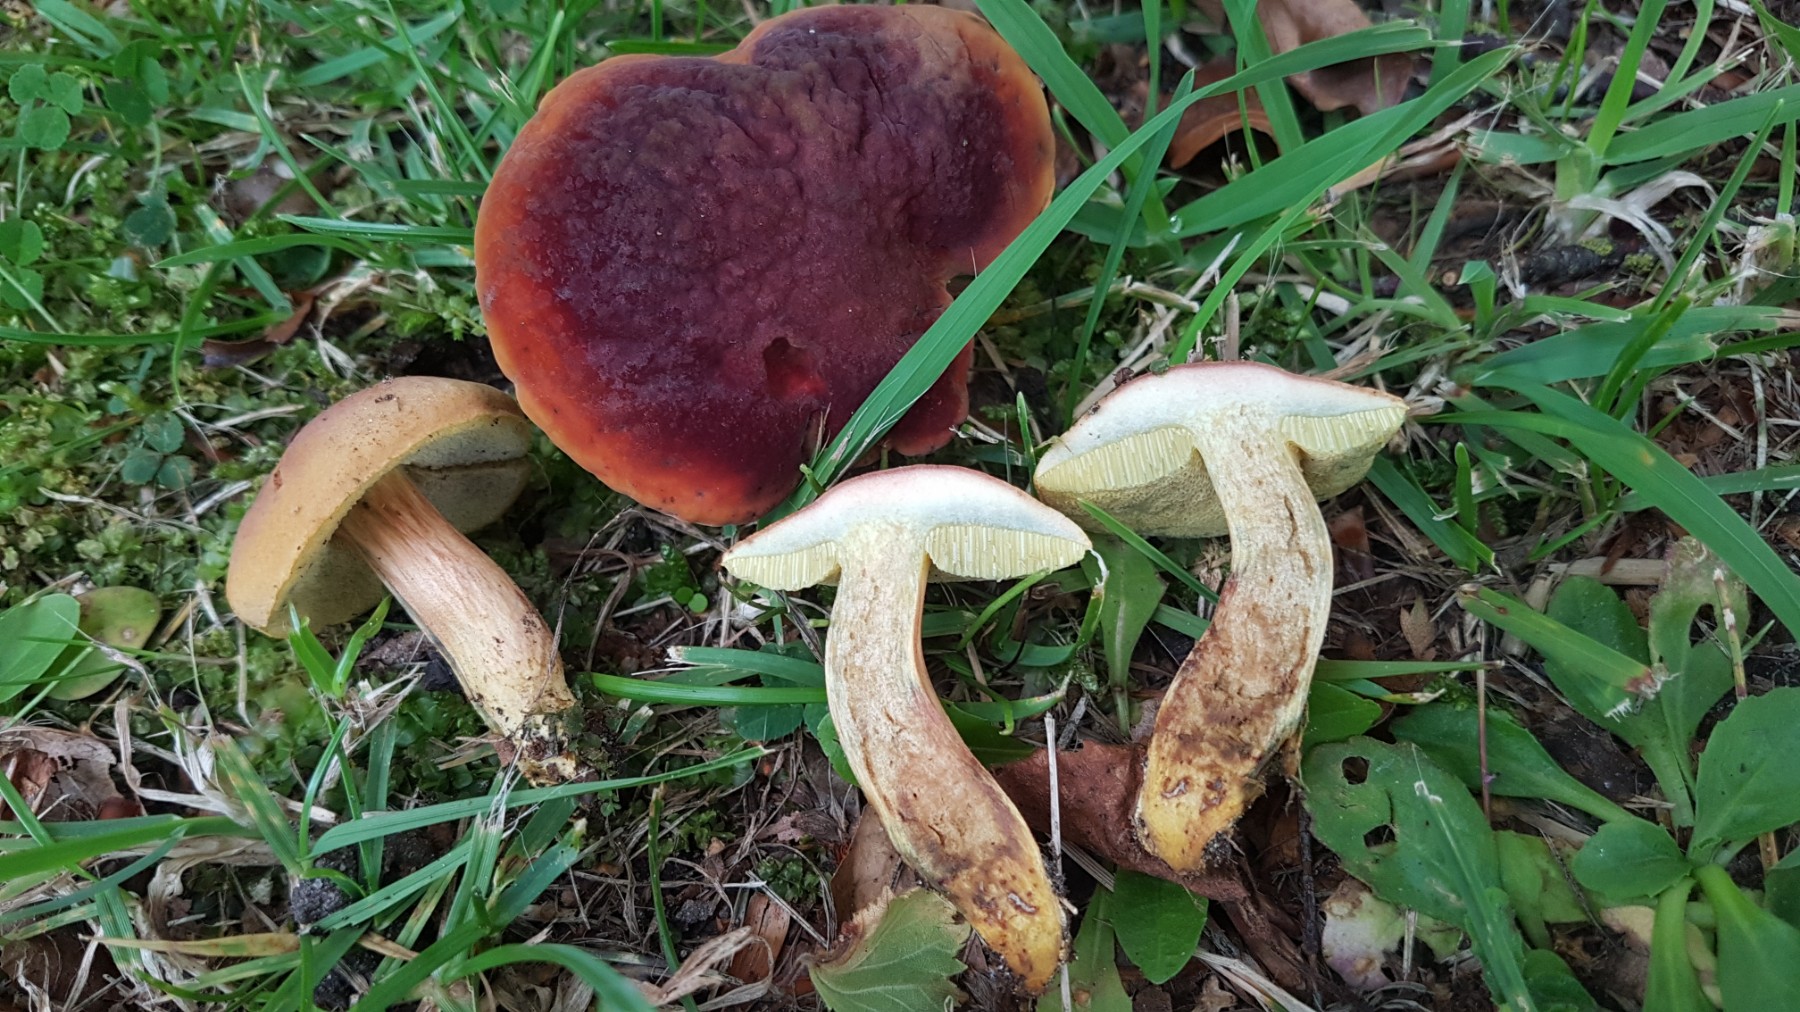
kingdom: Fungi
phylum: Basidiomycota
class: Agaricomycetes
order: Boletales
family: Boletaceae
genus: Hortiboletus
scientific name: Hortiboletus bubalinus
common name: aurora-rørhat
